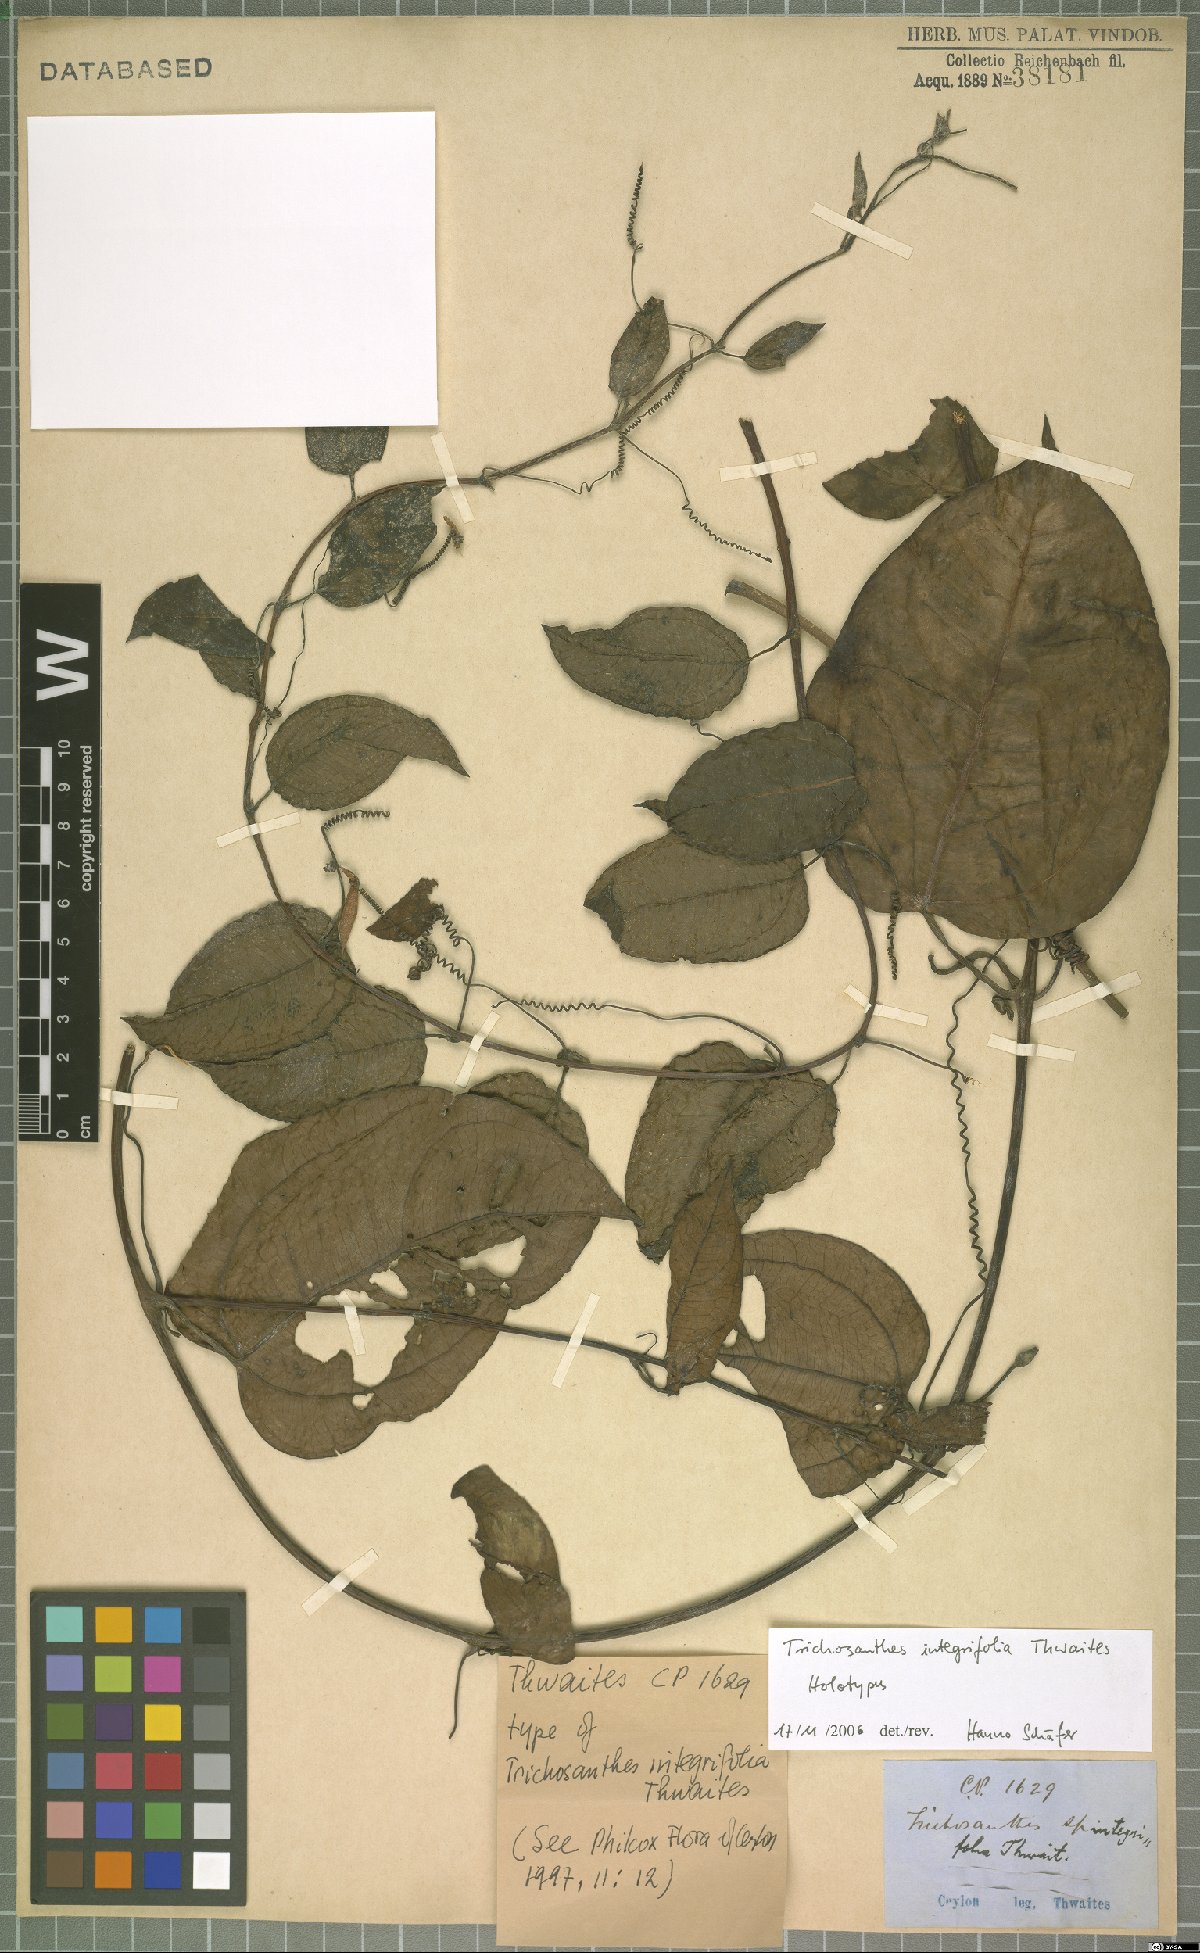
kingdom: Plantae
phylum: Tracheophyta
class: Magnoliopsida
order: Cucurbitales
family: Cucurbitaceae
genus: Trichosanthes
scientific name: Trichosanthes integrifolia
